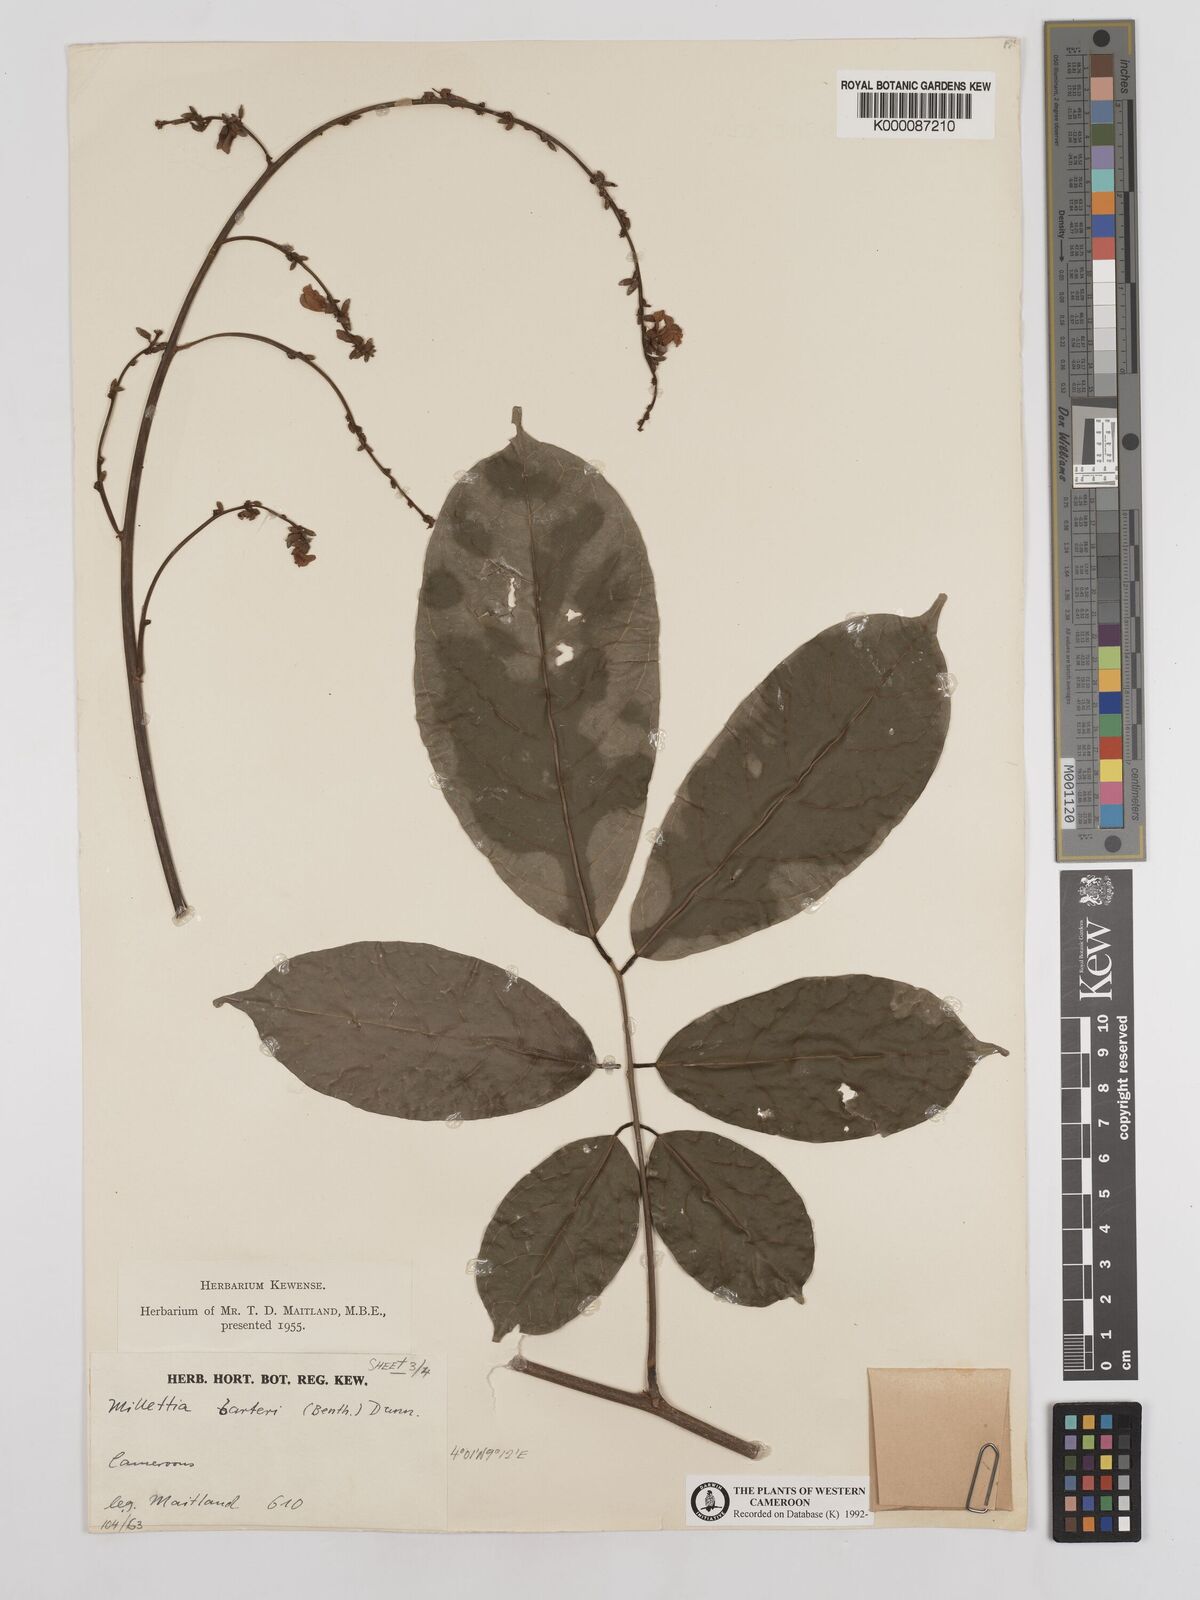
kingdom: Plantae
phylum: Tracheophyta
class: Magnoliopsida
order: Fabales
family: Fabaceae
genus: Millettia
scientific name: Millettia barteri
